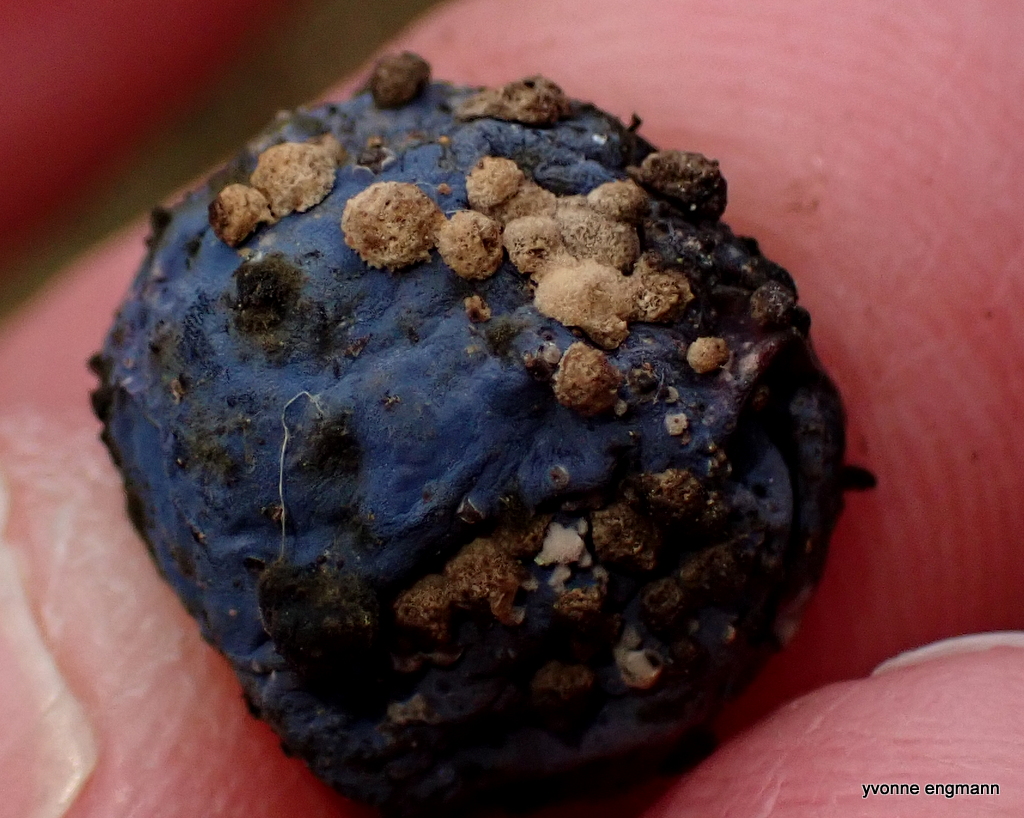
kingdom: Fungi
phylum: Ascomycota
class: Leotiomycetes
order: Helotiales
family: Sclerotiniaceae
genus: Monilinia
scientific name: Monilinia laxa
